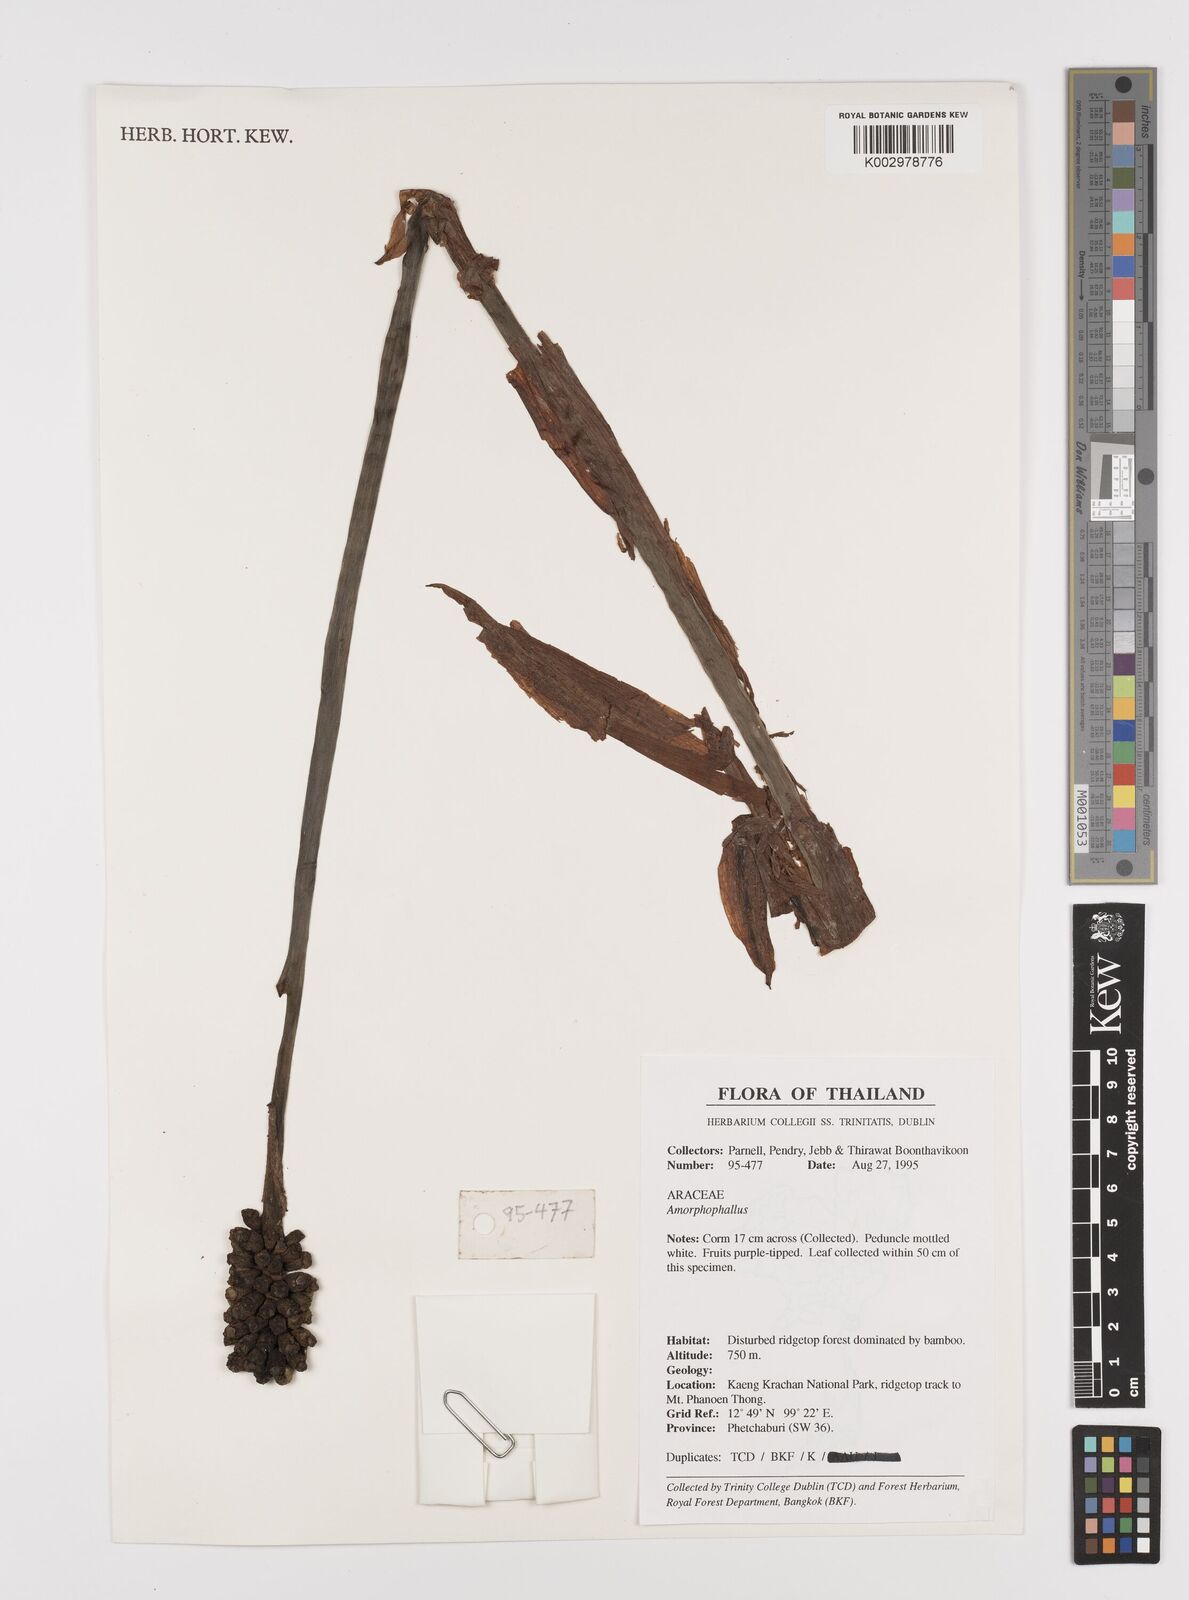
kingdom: Plantae
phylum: Tracheophyta
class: Liliopsida
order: Alismatales
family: Araceae
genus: Amorphophallus
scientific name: Amorphophallus
